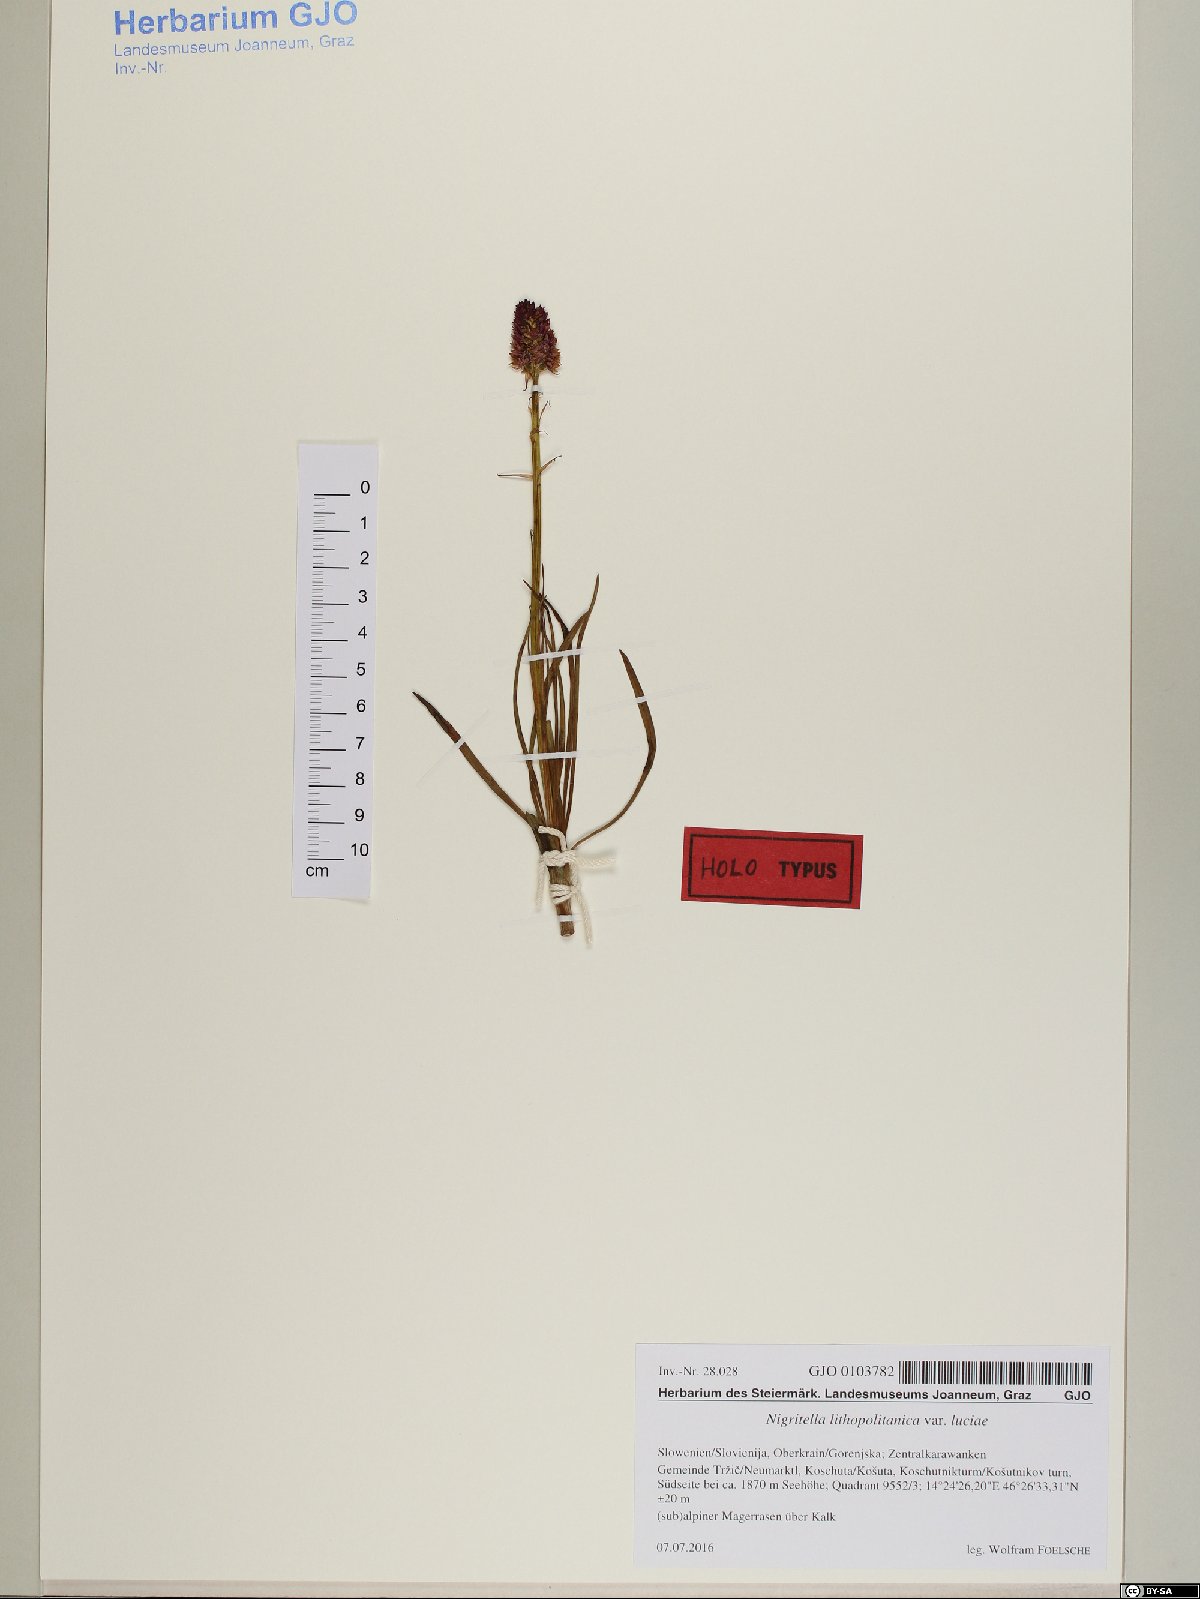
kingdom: Plantae
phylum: Tracheophyta
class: Liliopsida
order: Asparagales
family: Orchidaceae
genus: Gymnadenia
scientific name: Gymnadenia lithopolitanica
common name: Austrian gymnadenia
